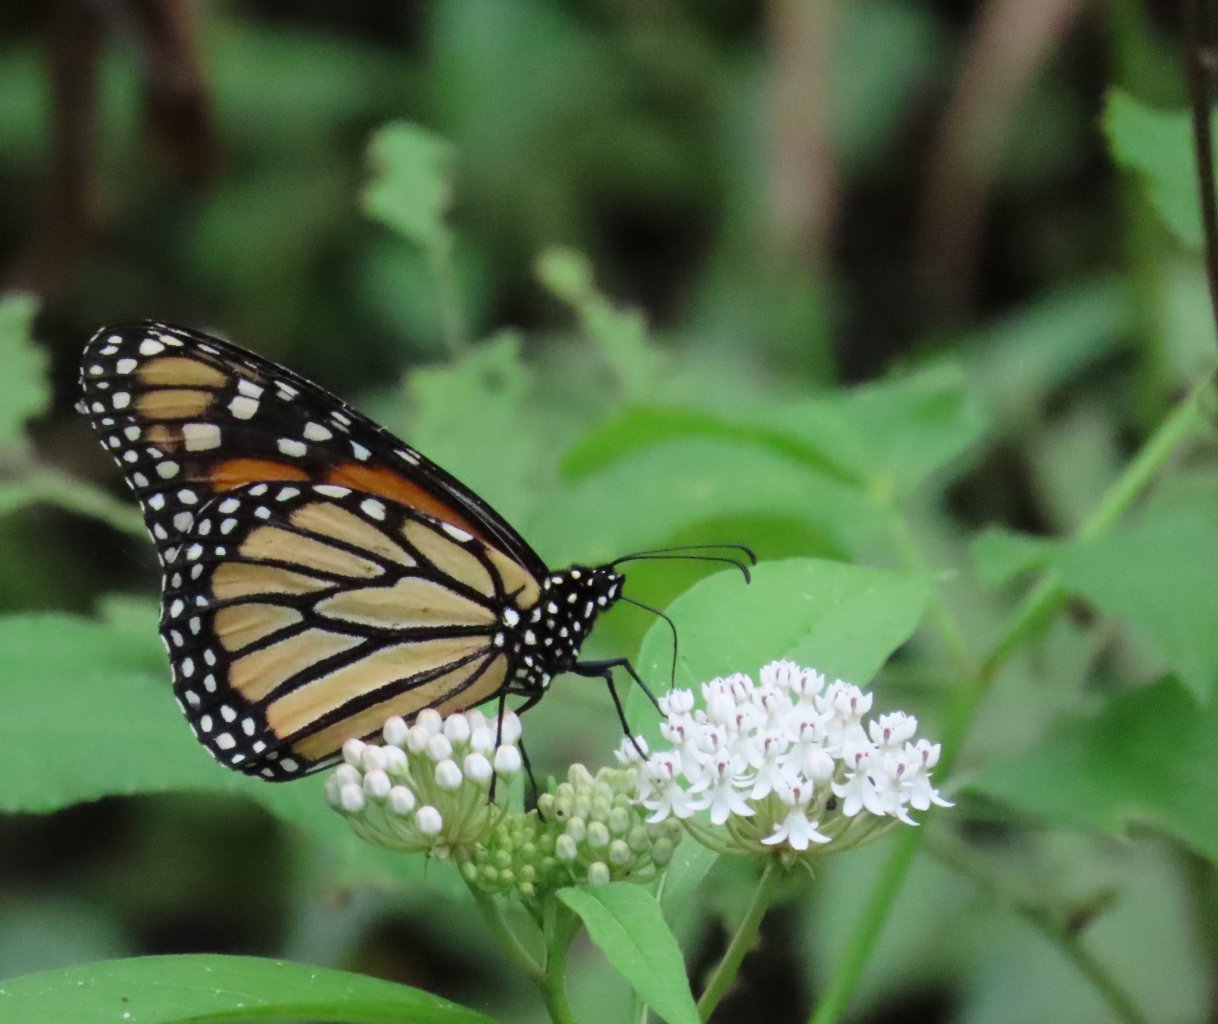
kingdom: Animalia
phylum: Arthropoda
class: Insecta
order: Lepidoptera
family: Nymphalidae
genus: Danaus
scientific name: Danaus plexippus
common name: Monarch
